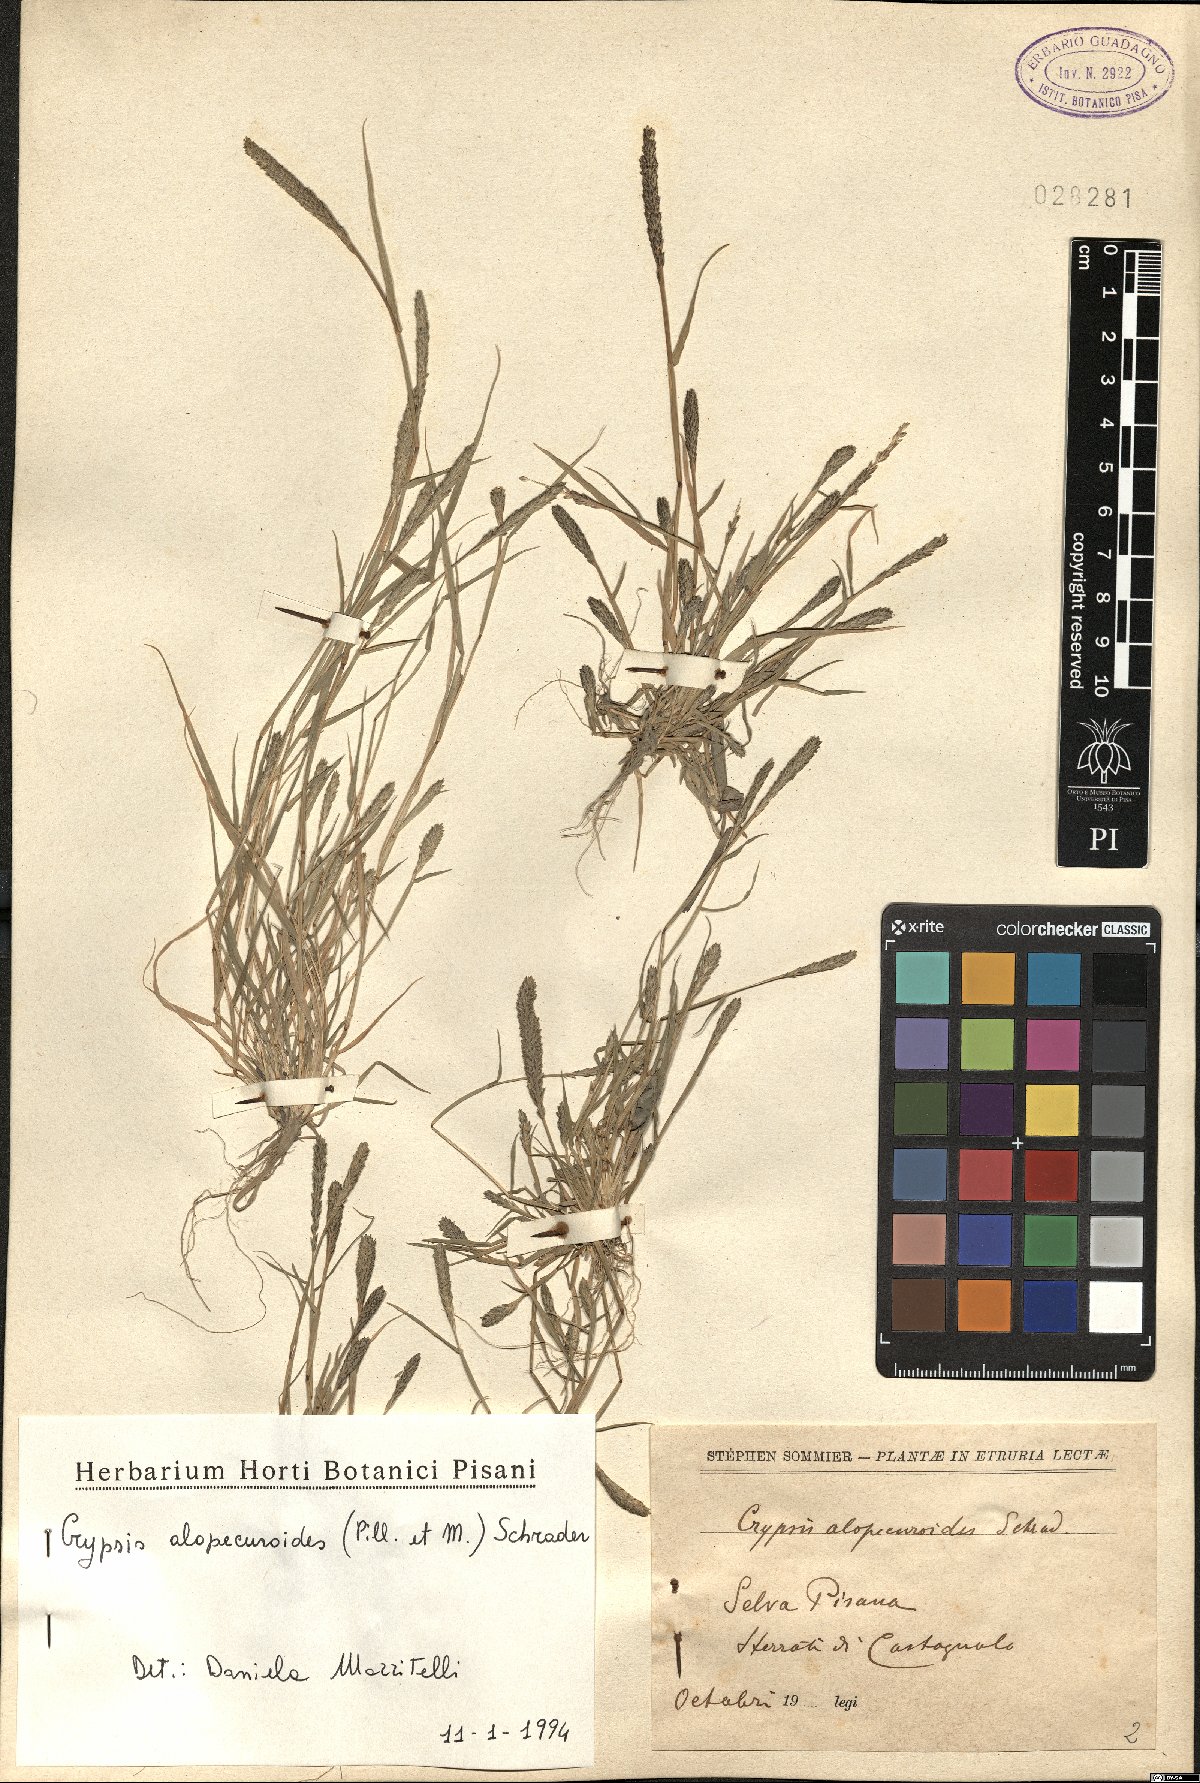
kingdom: Plantae
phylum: Tracheophyta
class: Liliopsida
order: Poales
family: Poaceae
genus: Sporobolus
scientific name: Sporobolus alopecuroides
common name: Foxtail pricklegrass
